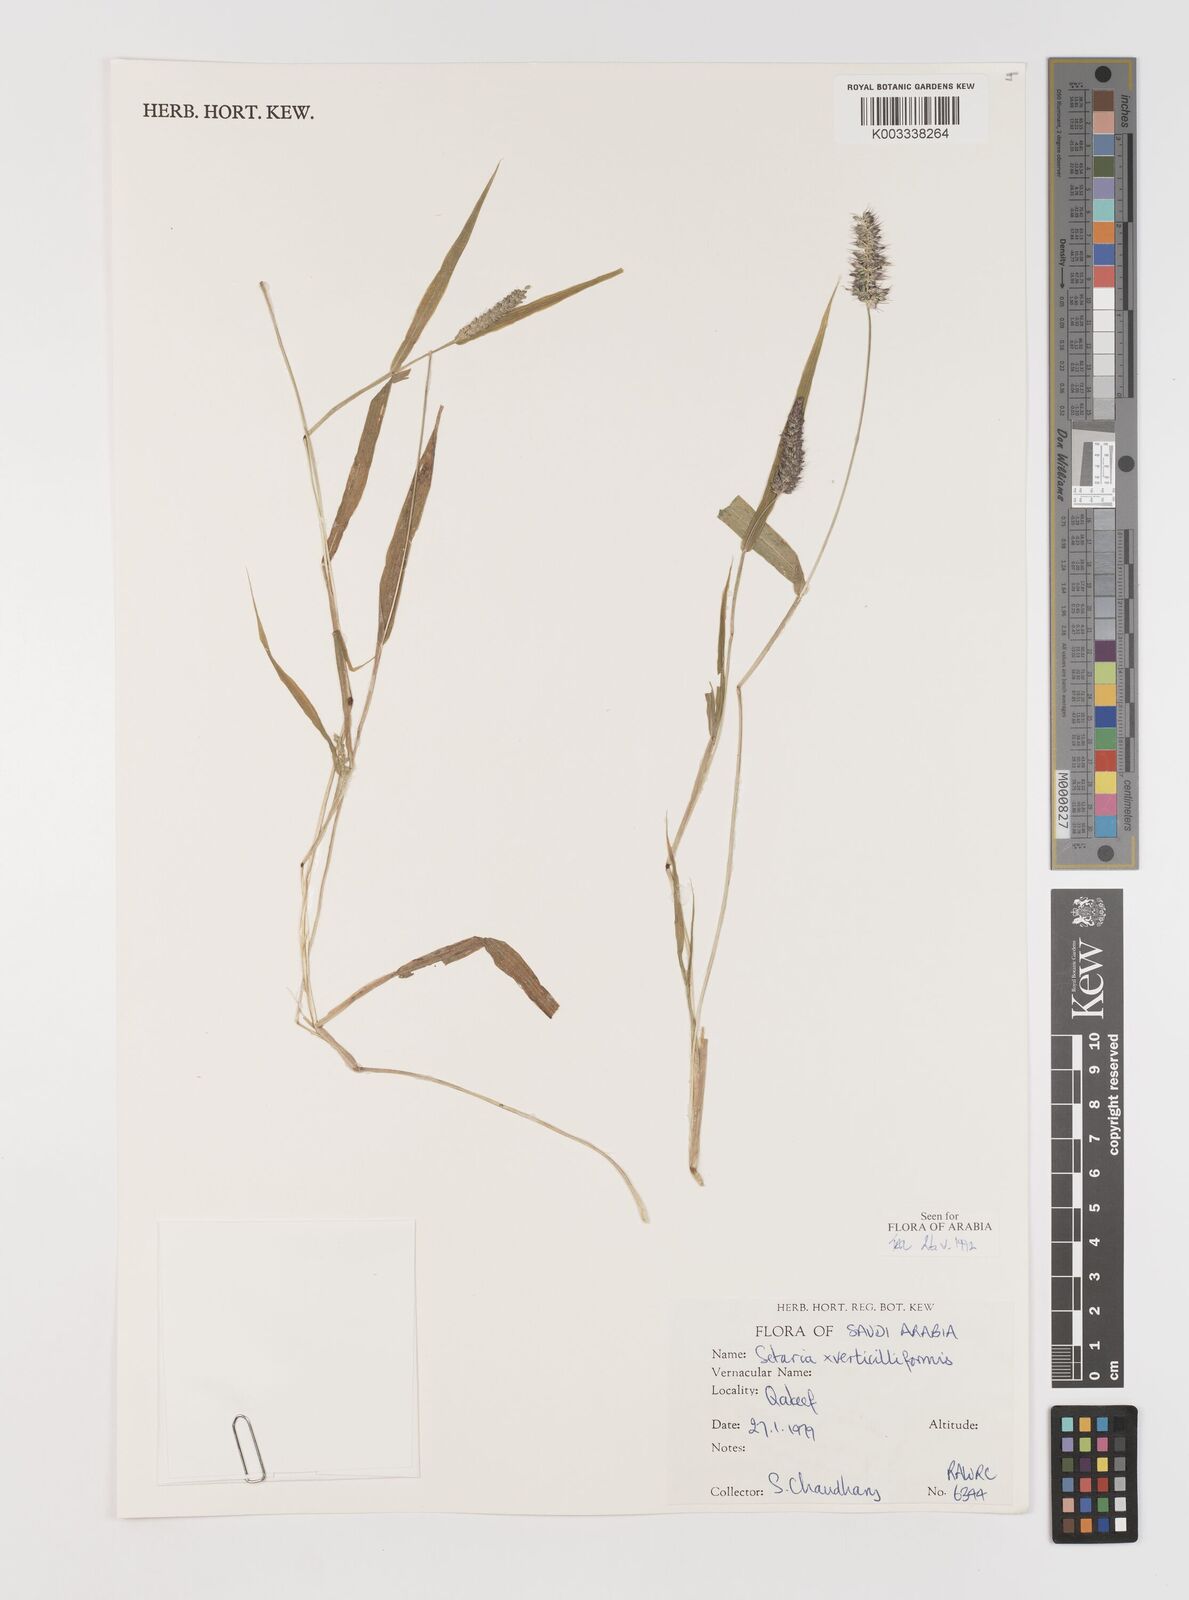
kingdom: Plantae
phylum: Tracheophyta
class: Liliopsida
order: Poales
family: Poaceae
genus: Setaria
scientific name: Setaria verticillata
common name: Hooked bristlegrass
